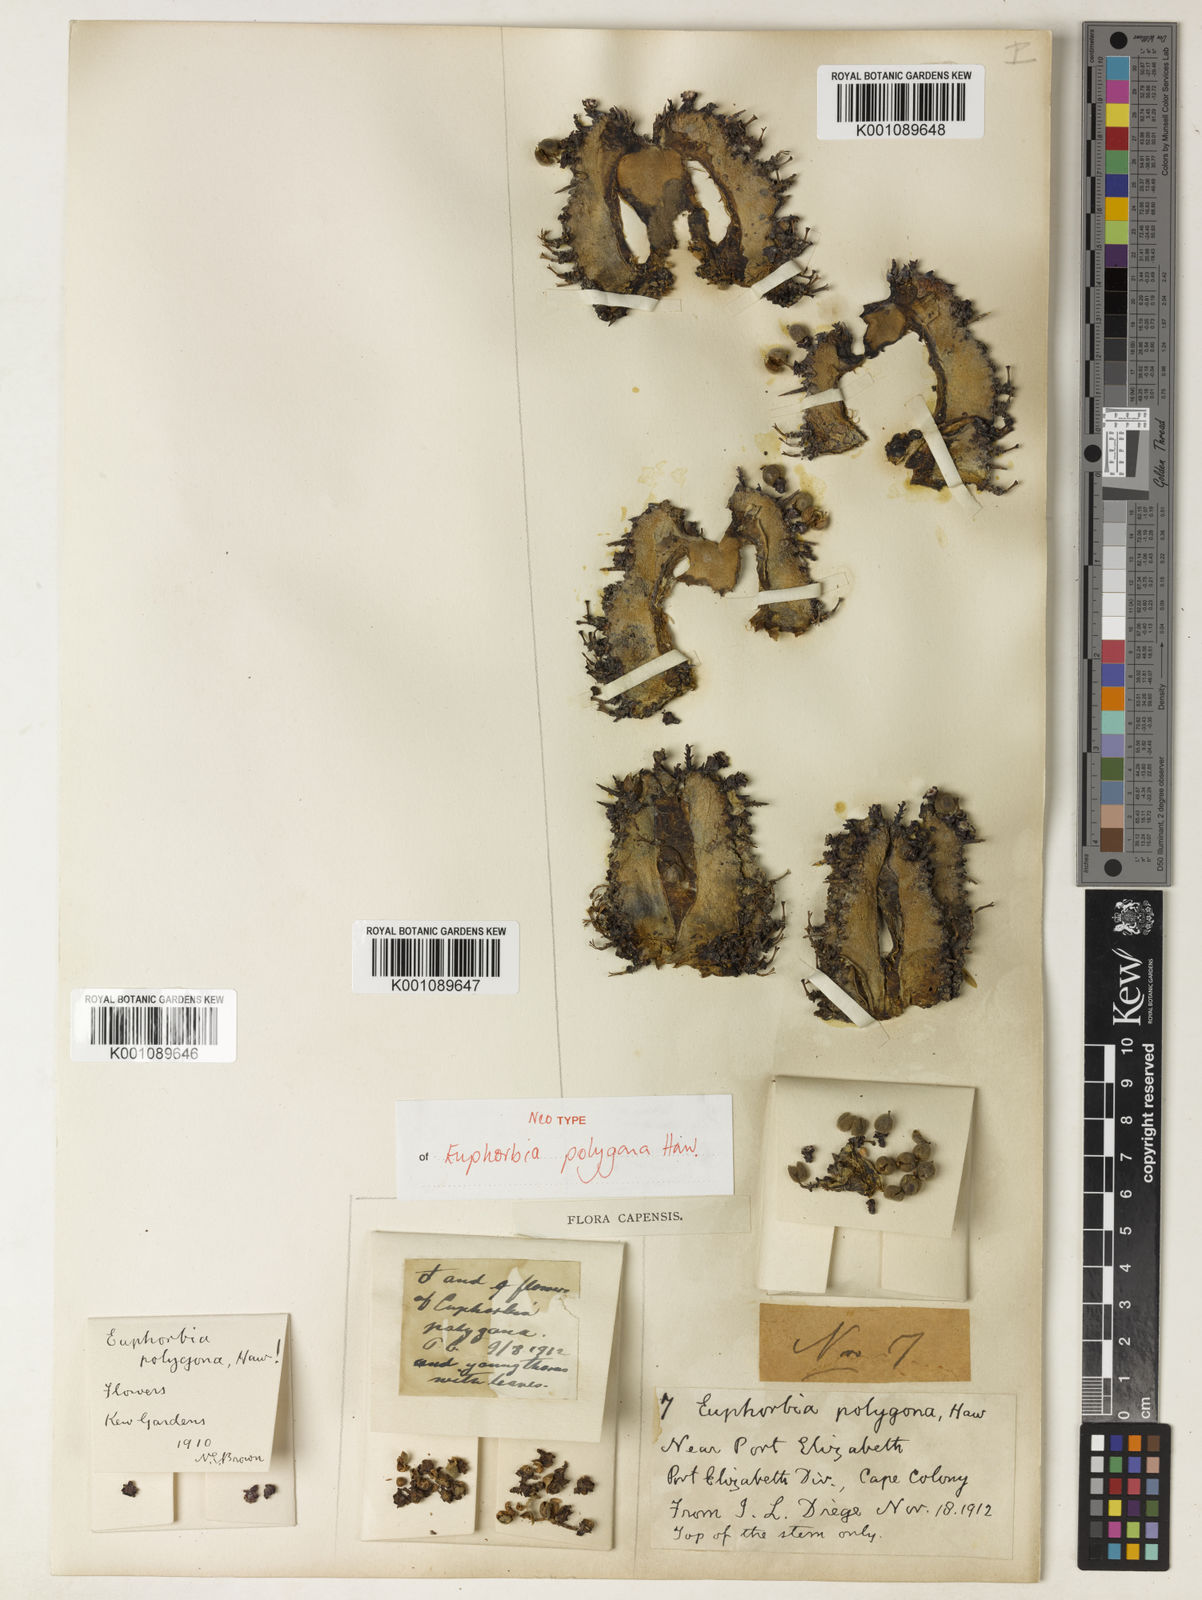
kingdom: Plantae
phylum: Tracheophyta
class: Magnoliopsida
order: Malpighiales
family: Euphorbiaceae
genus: Euphorbia
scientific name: Euphorbia polygona
